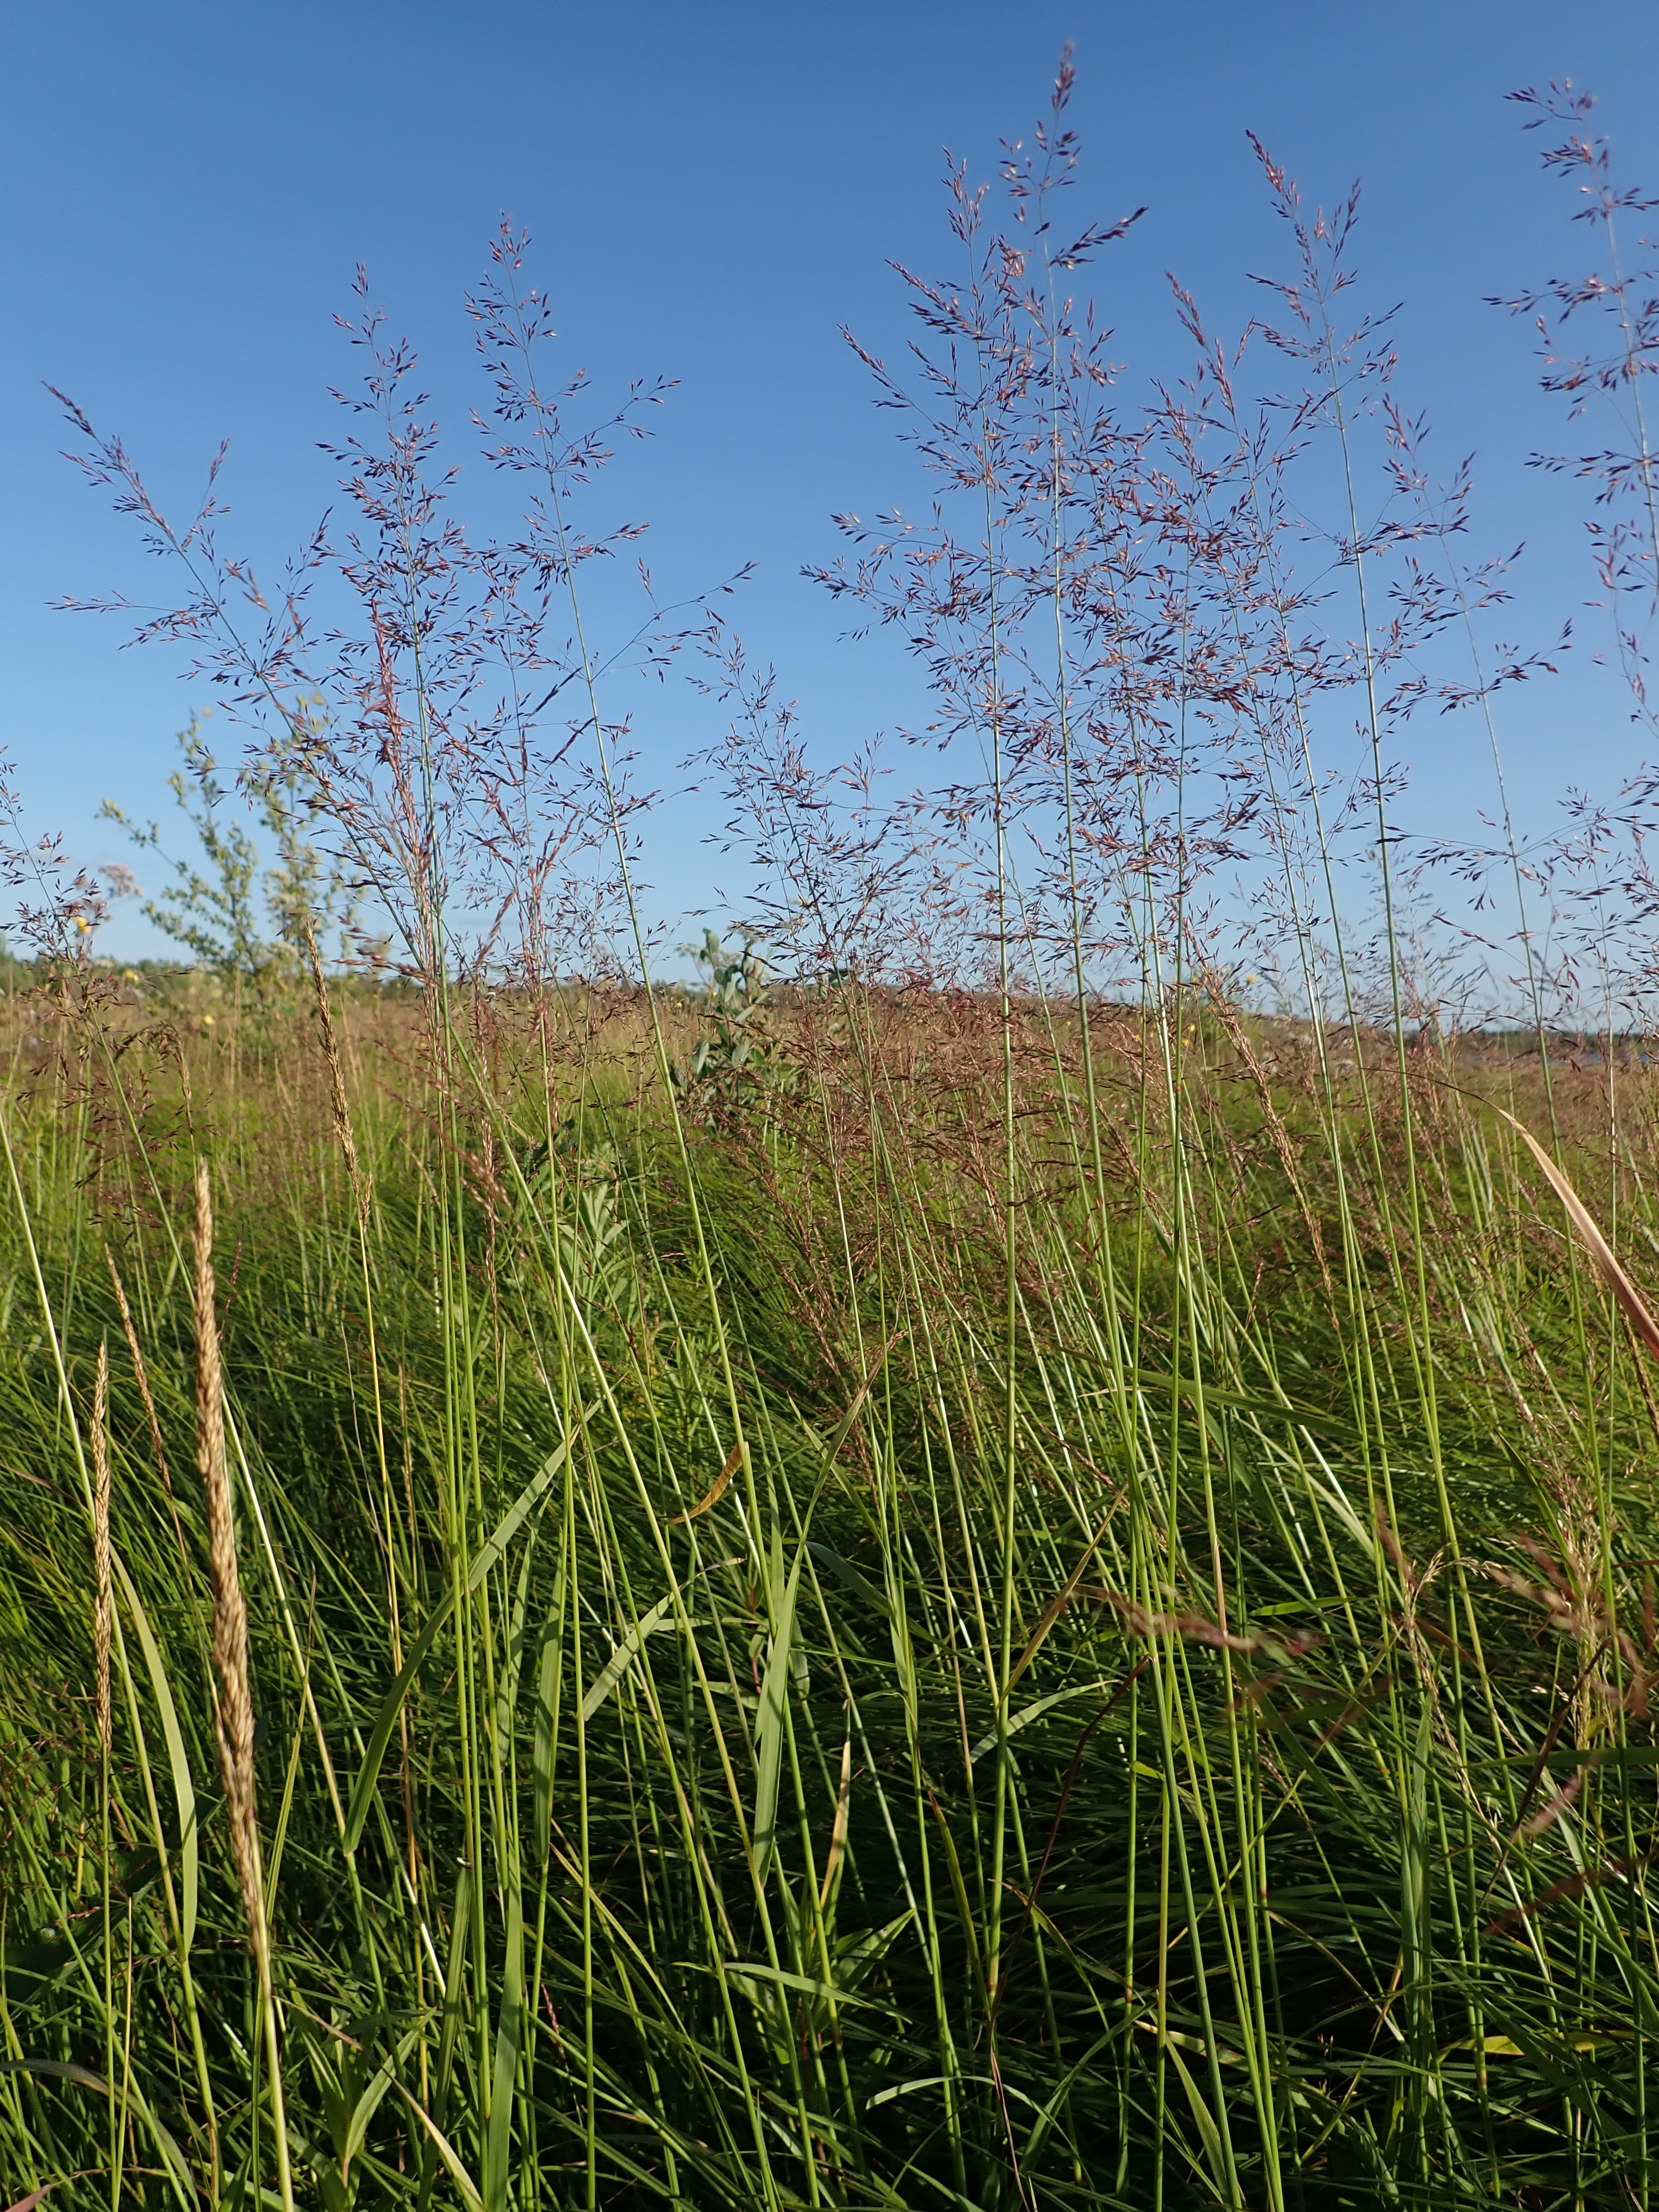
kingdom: Plantae
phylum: Tracheophyta
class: Liliopsida
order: Poales
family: Poaceae
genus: Agrostis
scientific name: Agrostis gigantea
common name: Black bent
